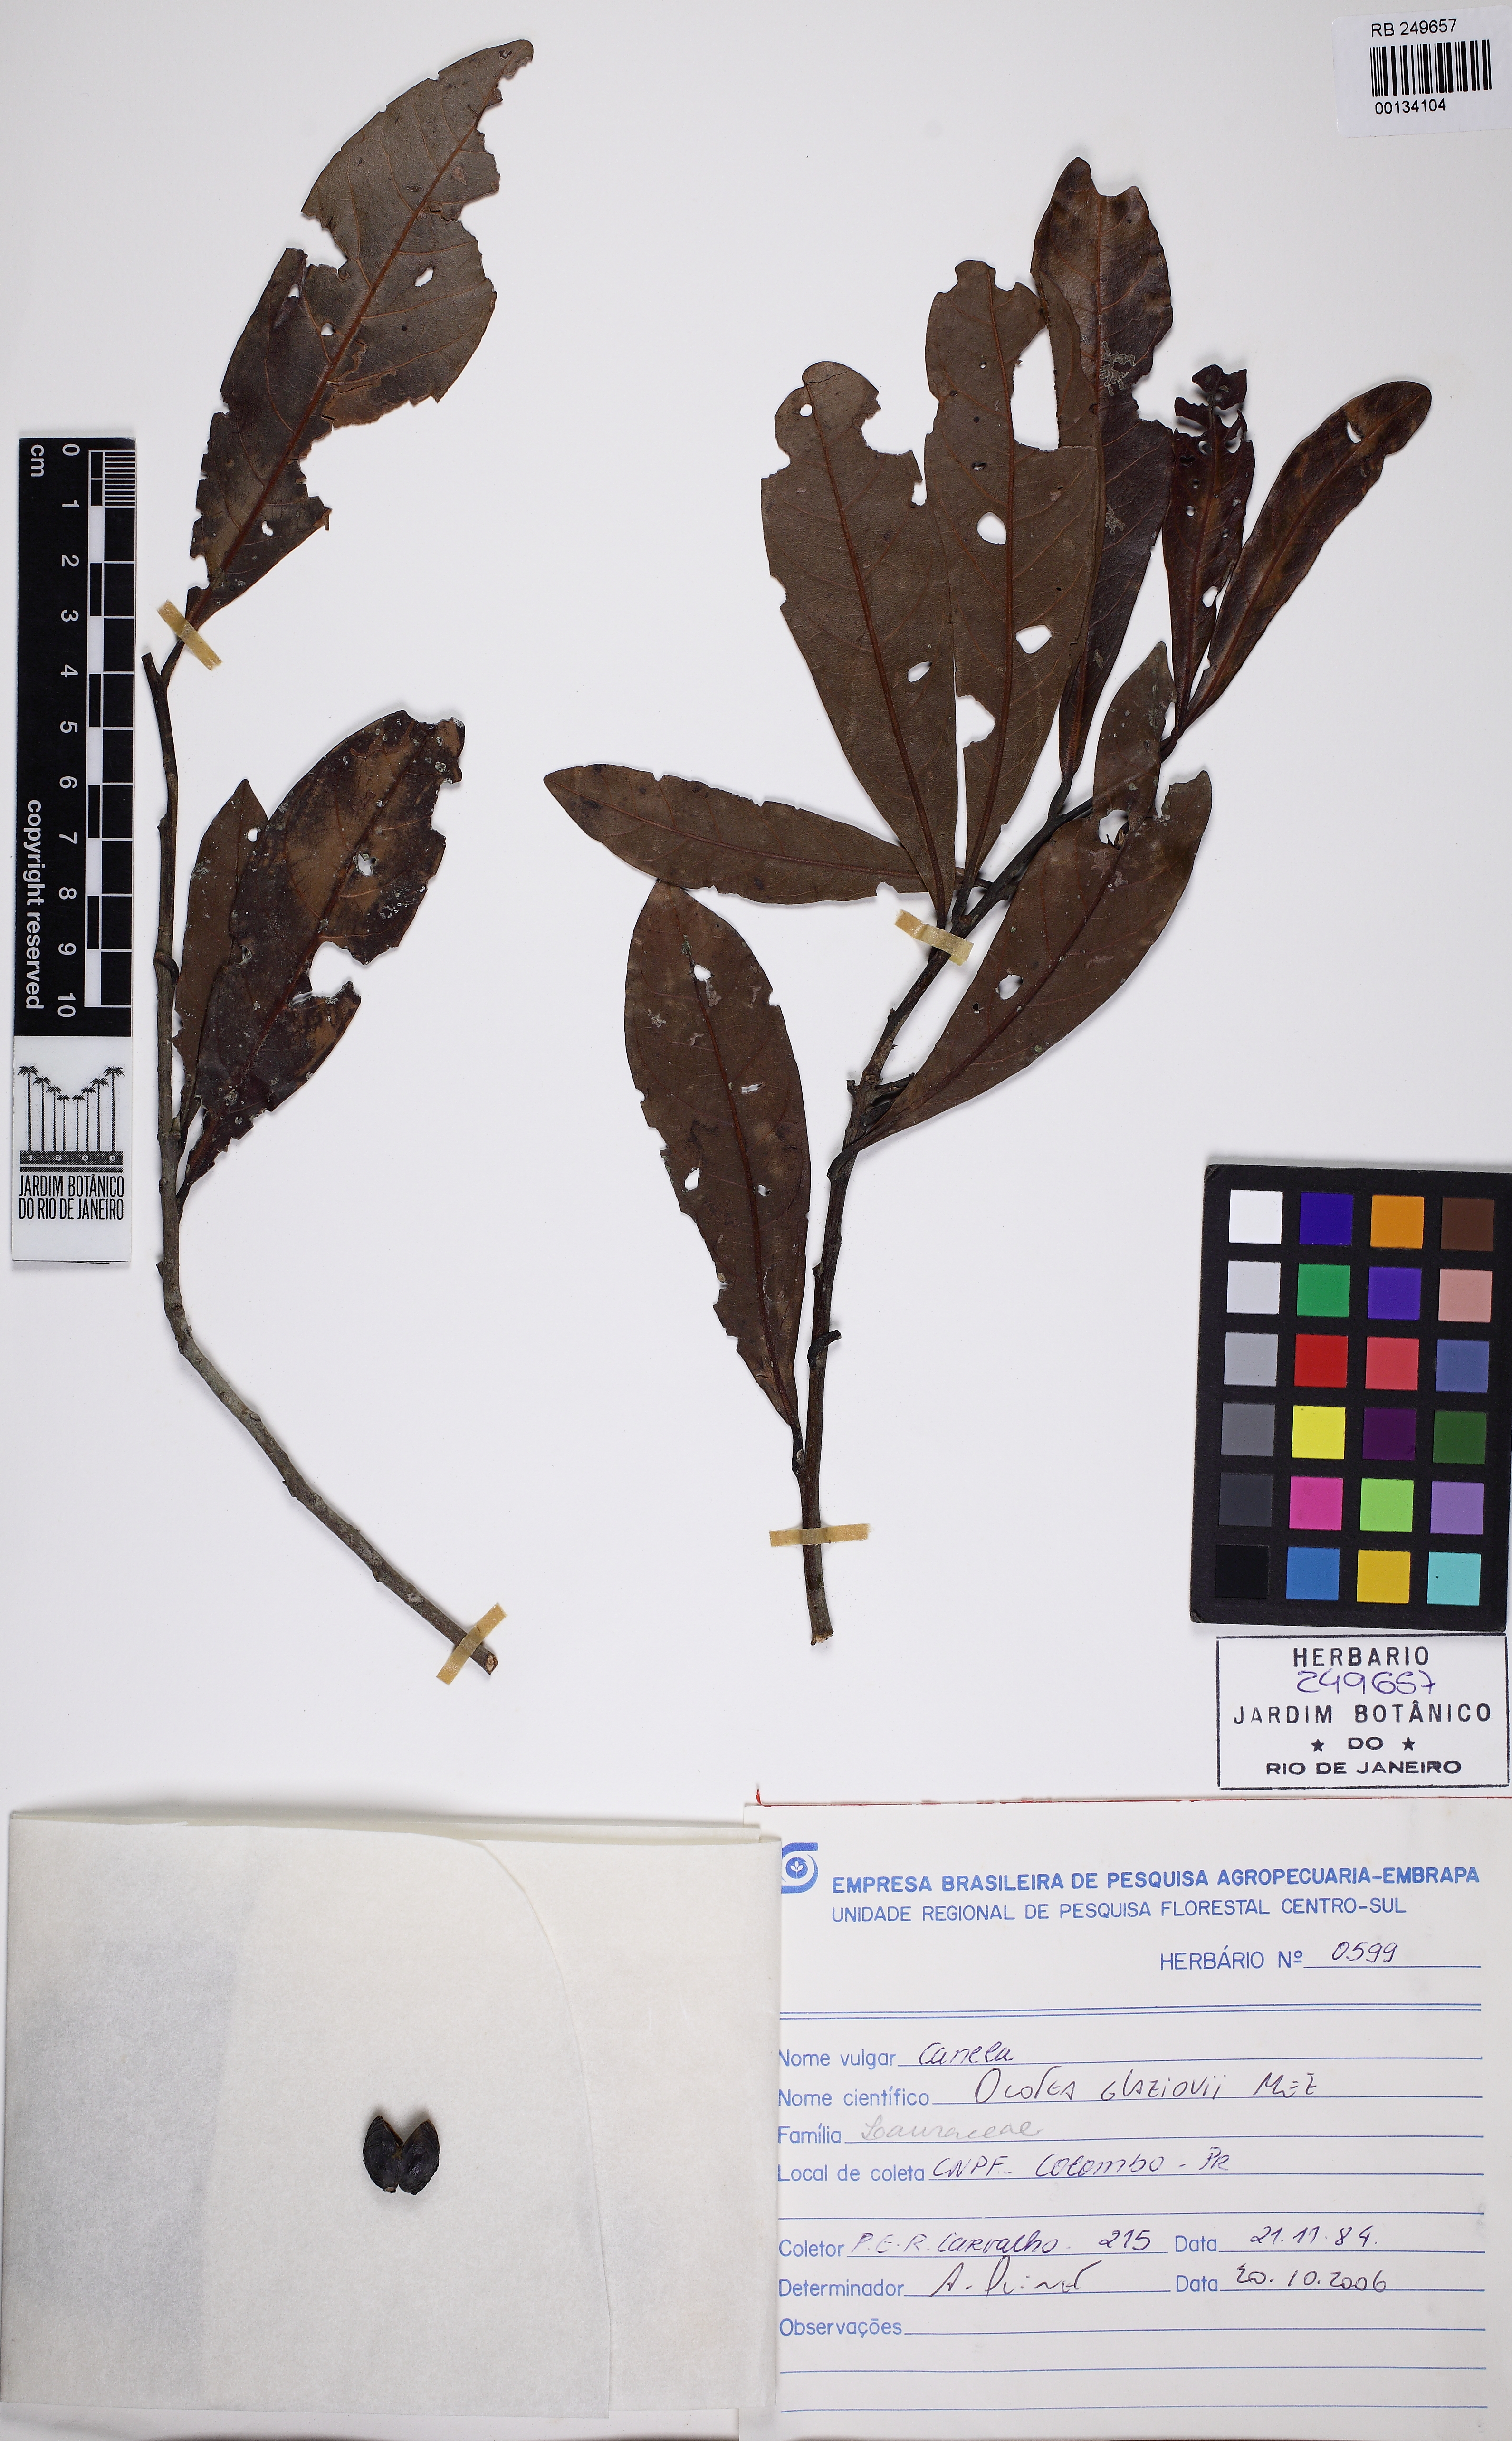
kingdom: Plantae
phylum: Tracheophyta
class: Magnoliopsida
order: Laurales
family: Lauraceae
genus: Ocotea
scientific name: Ocotea glaziovii
